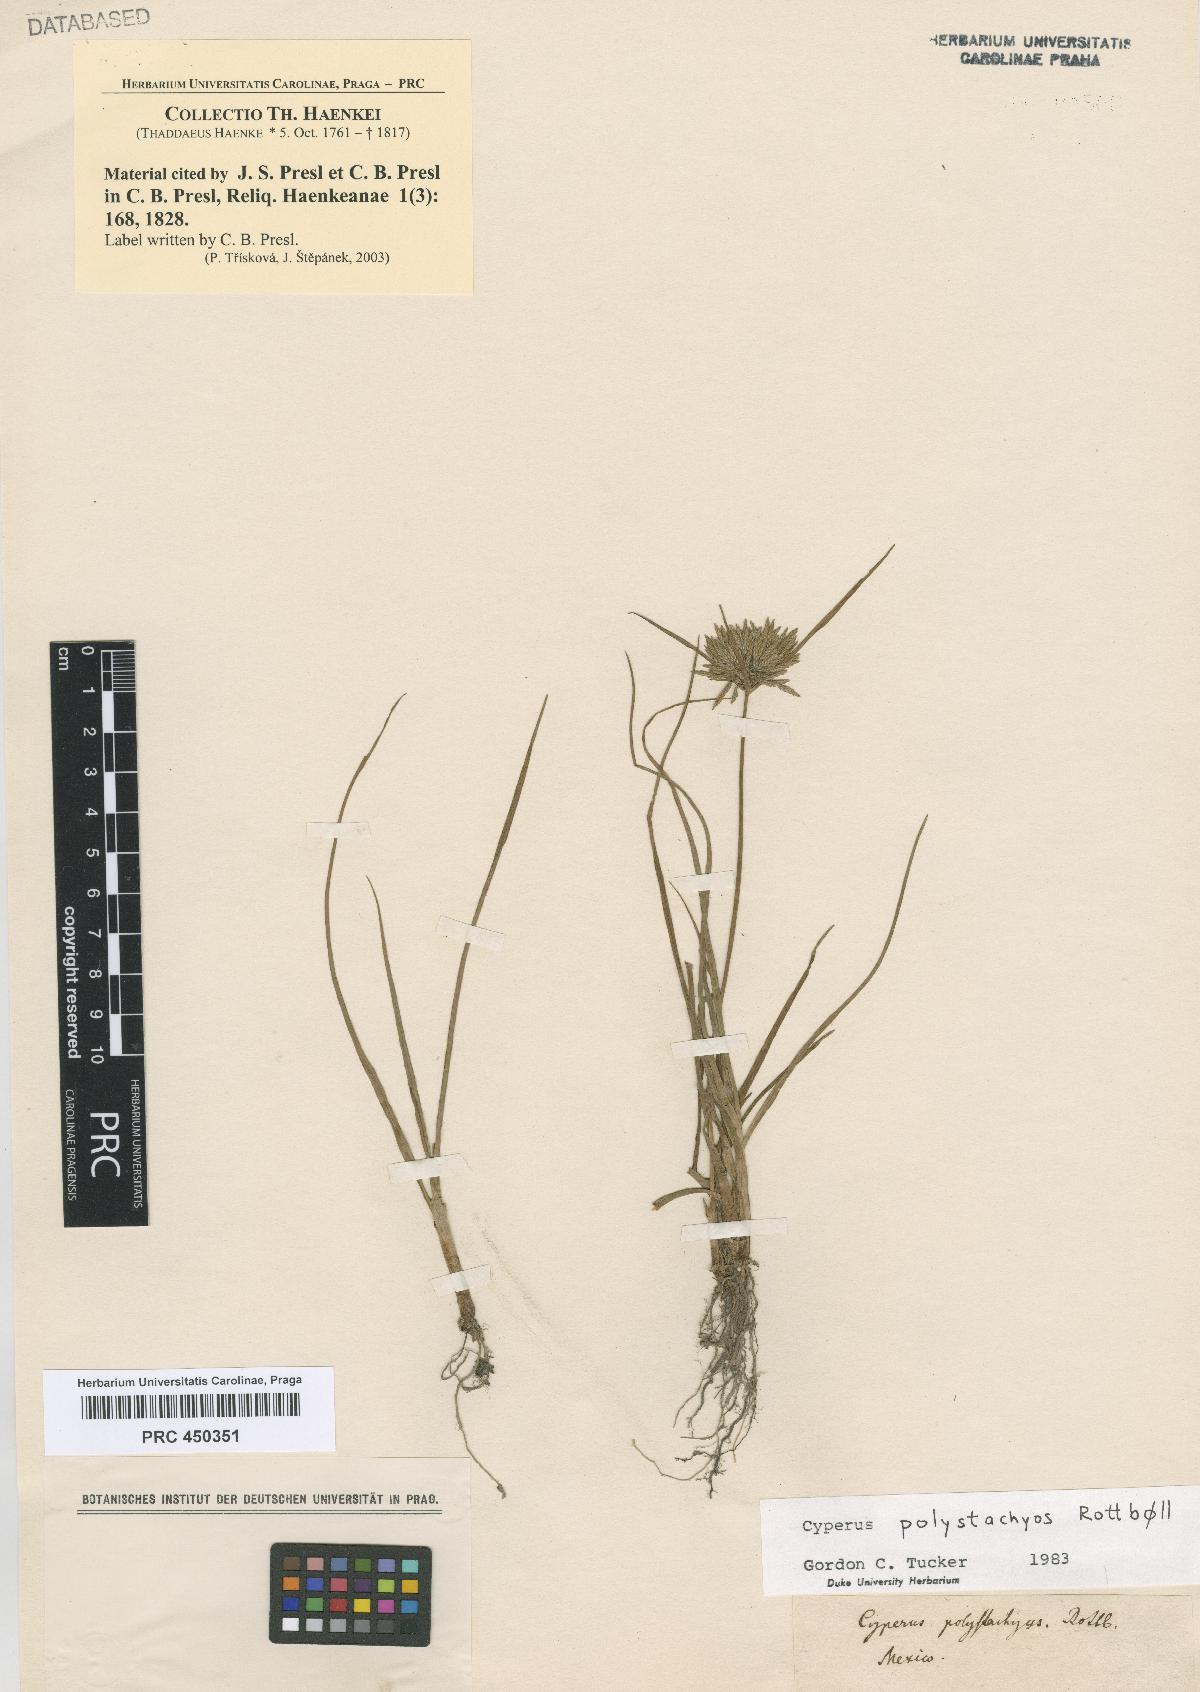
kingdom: Plantae
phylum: Tracheophyta
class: Liliopsida
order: Poales
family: Cyperaceae
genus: Cyperus
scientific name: Cyperus polystachyos
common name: Bunchy flat sedge
